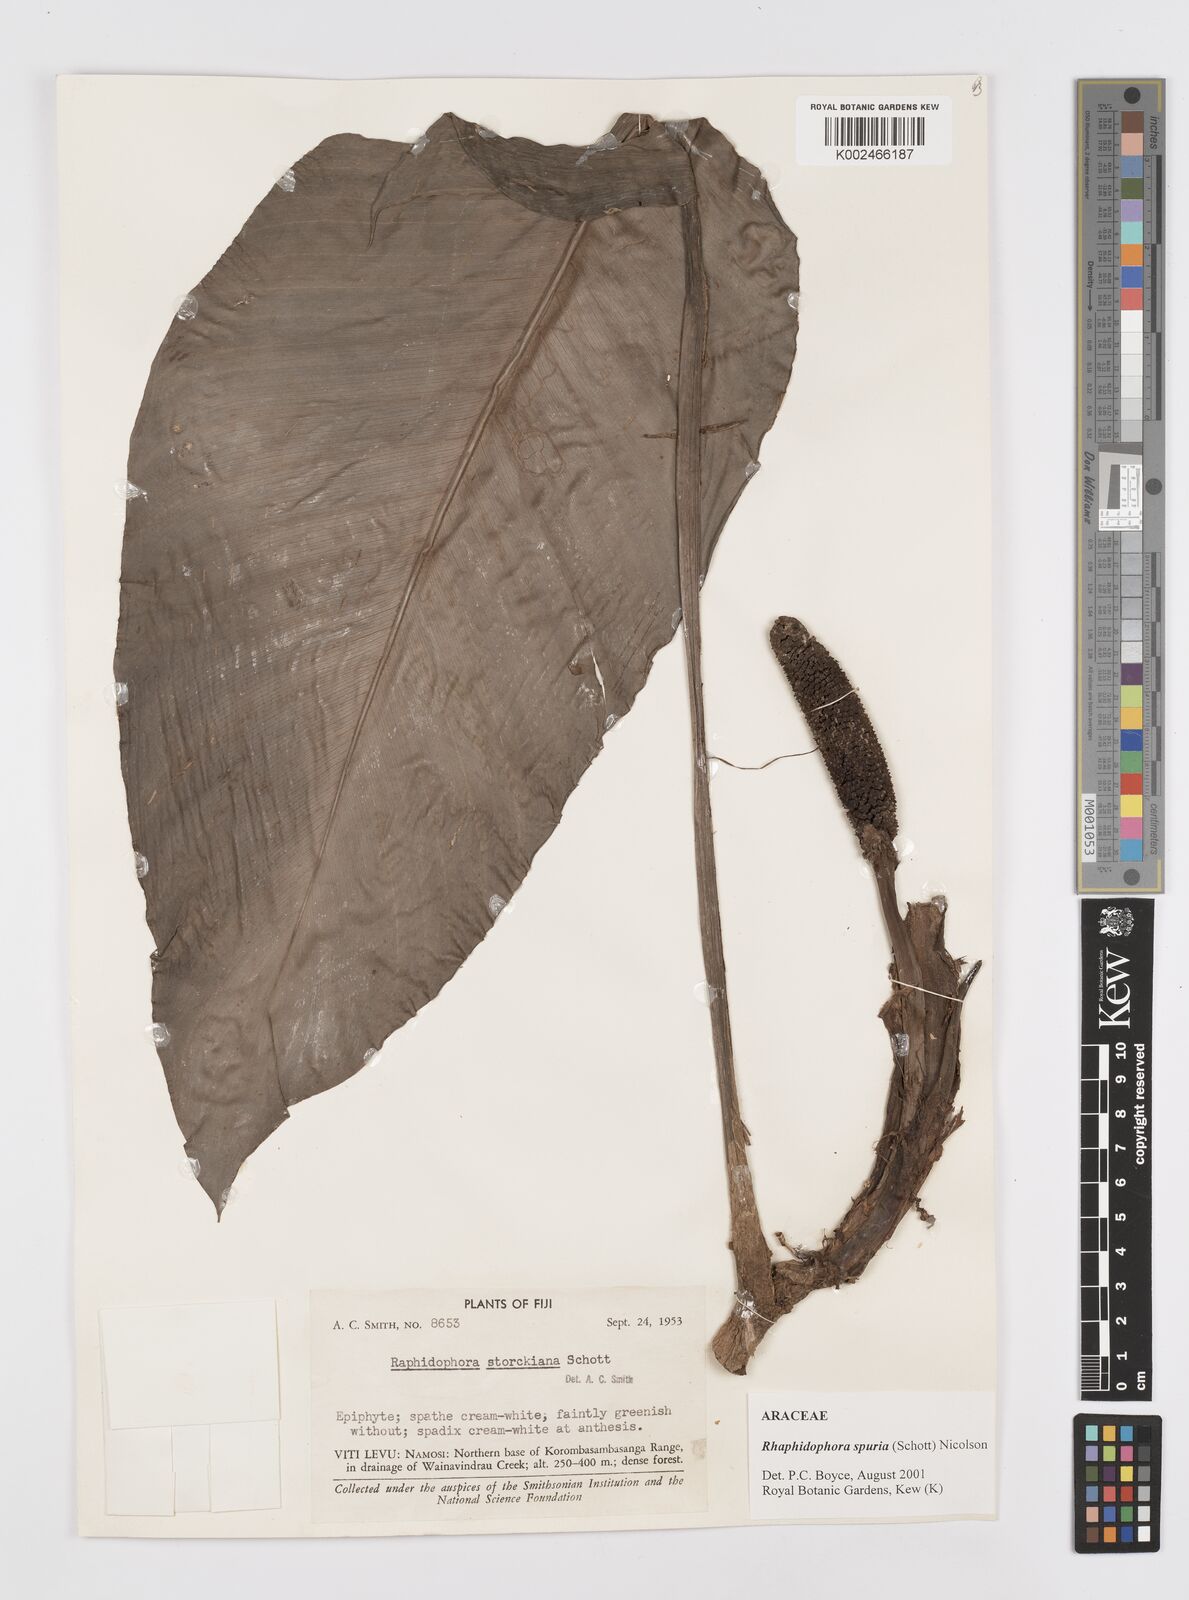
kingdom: Plantae
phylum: Tracheophyta
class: Liliopsida
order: Alismatales
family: Araceae
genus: Rhaphidophora
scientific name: Rhaphidophora spuria
